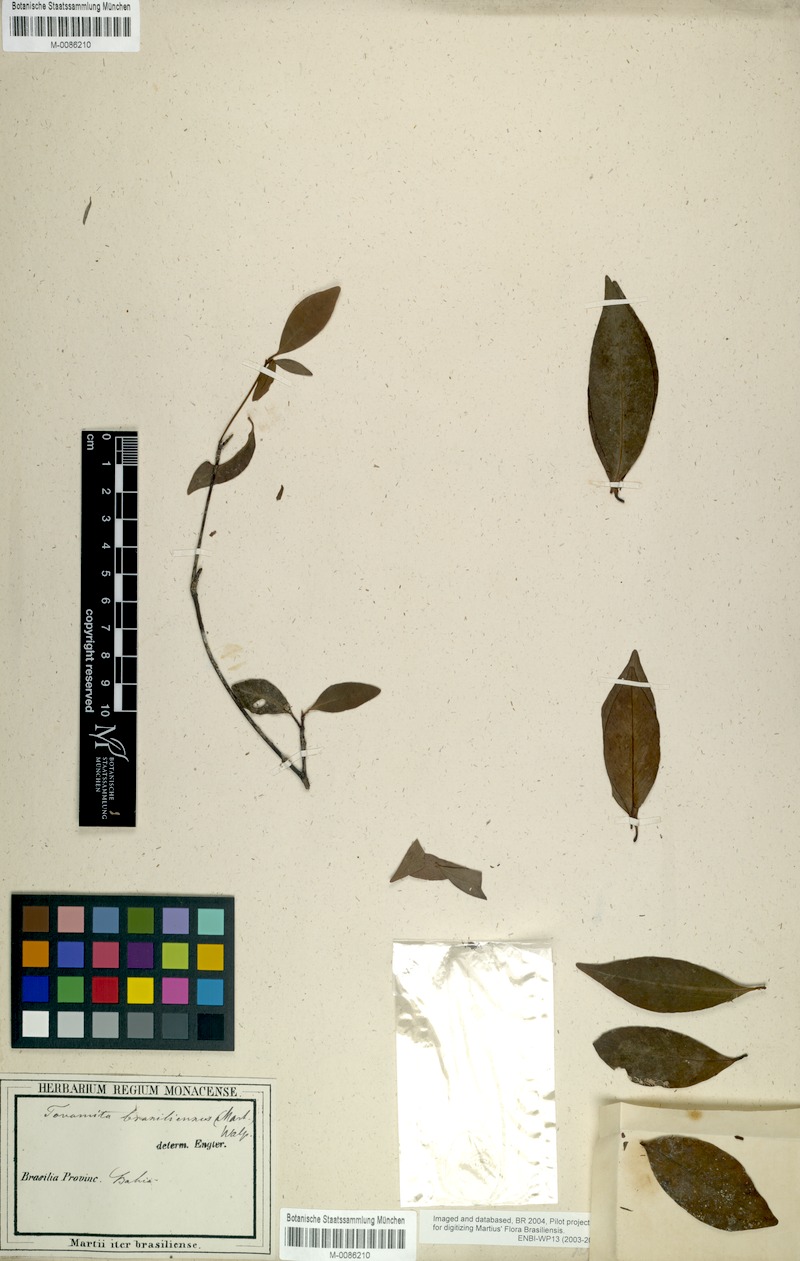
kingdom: Plantae
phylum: Tracheophyta
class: Magnoliopsida
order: Malpighiales
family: Clusiaceae
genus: Tovomita
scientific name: Tovomita fructipendula
